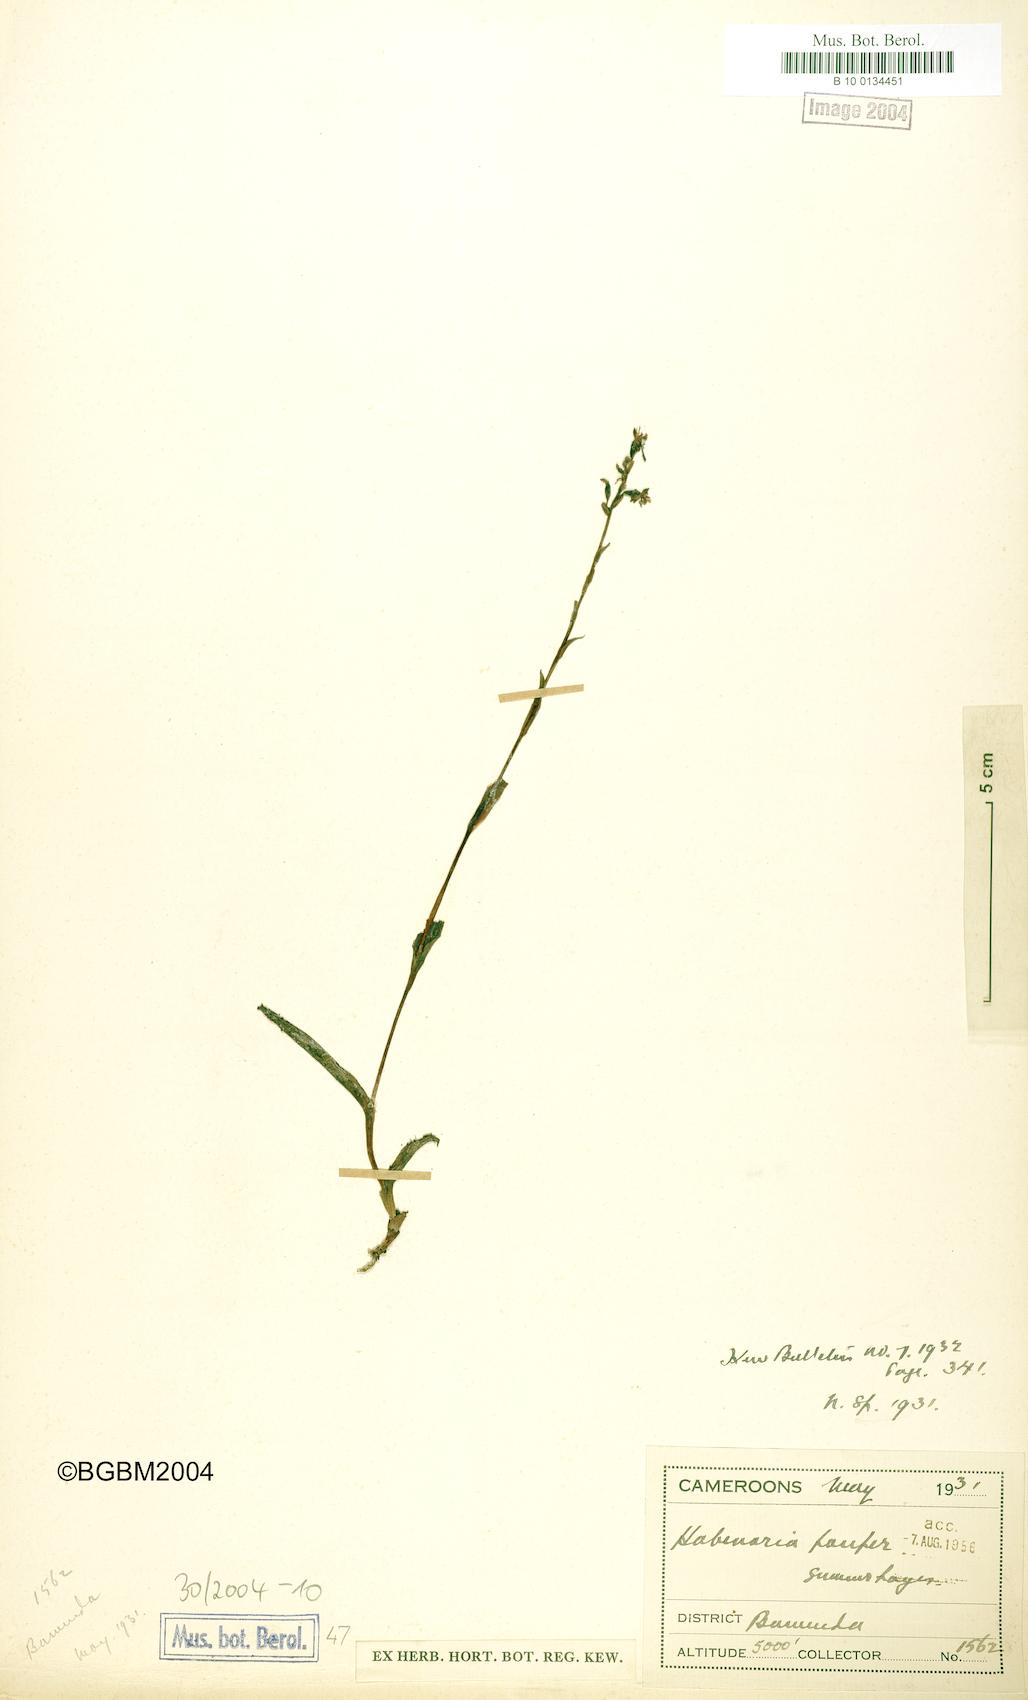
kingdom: Plantae
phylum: Tracheophyta
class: Liliopsida
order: Asparagales
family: Orchidaceae
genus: Habenaria
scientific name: Habenaria pauper
